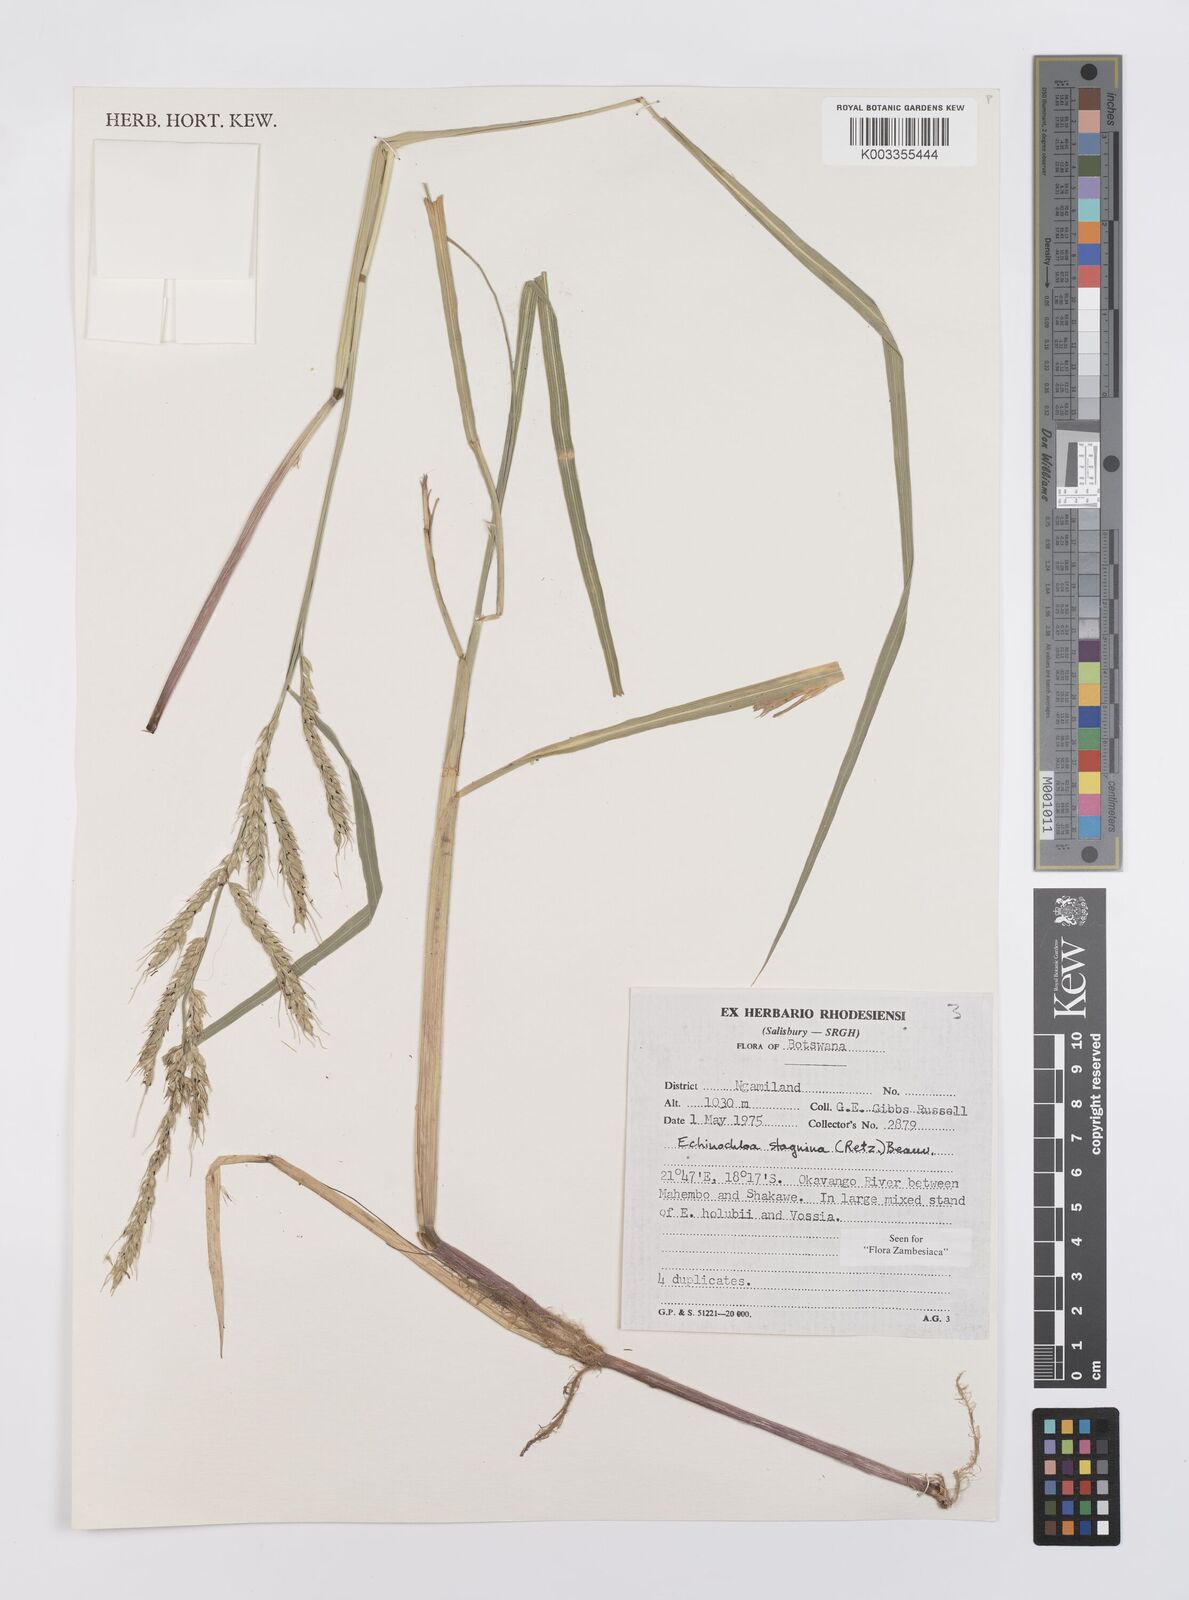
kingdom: Plantae
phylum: Tracheophyta
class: Liliopsida
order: Poales
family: Poaceae
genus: Echinochloa
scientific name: Echinochloa stagnina
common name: Burgu grass
